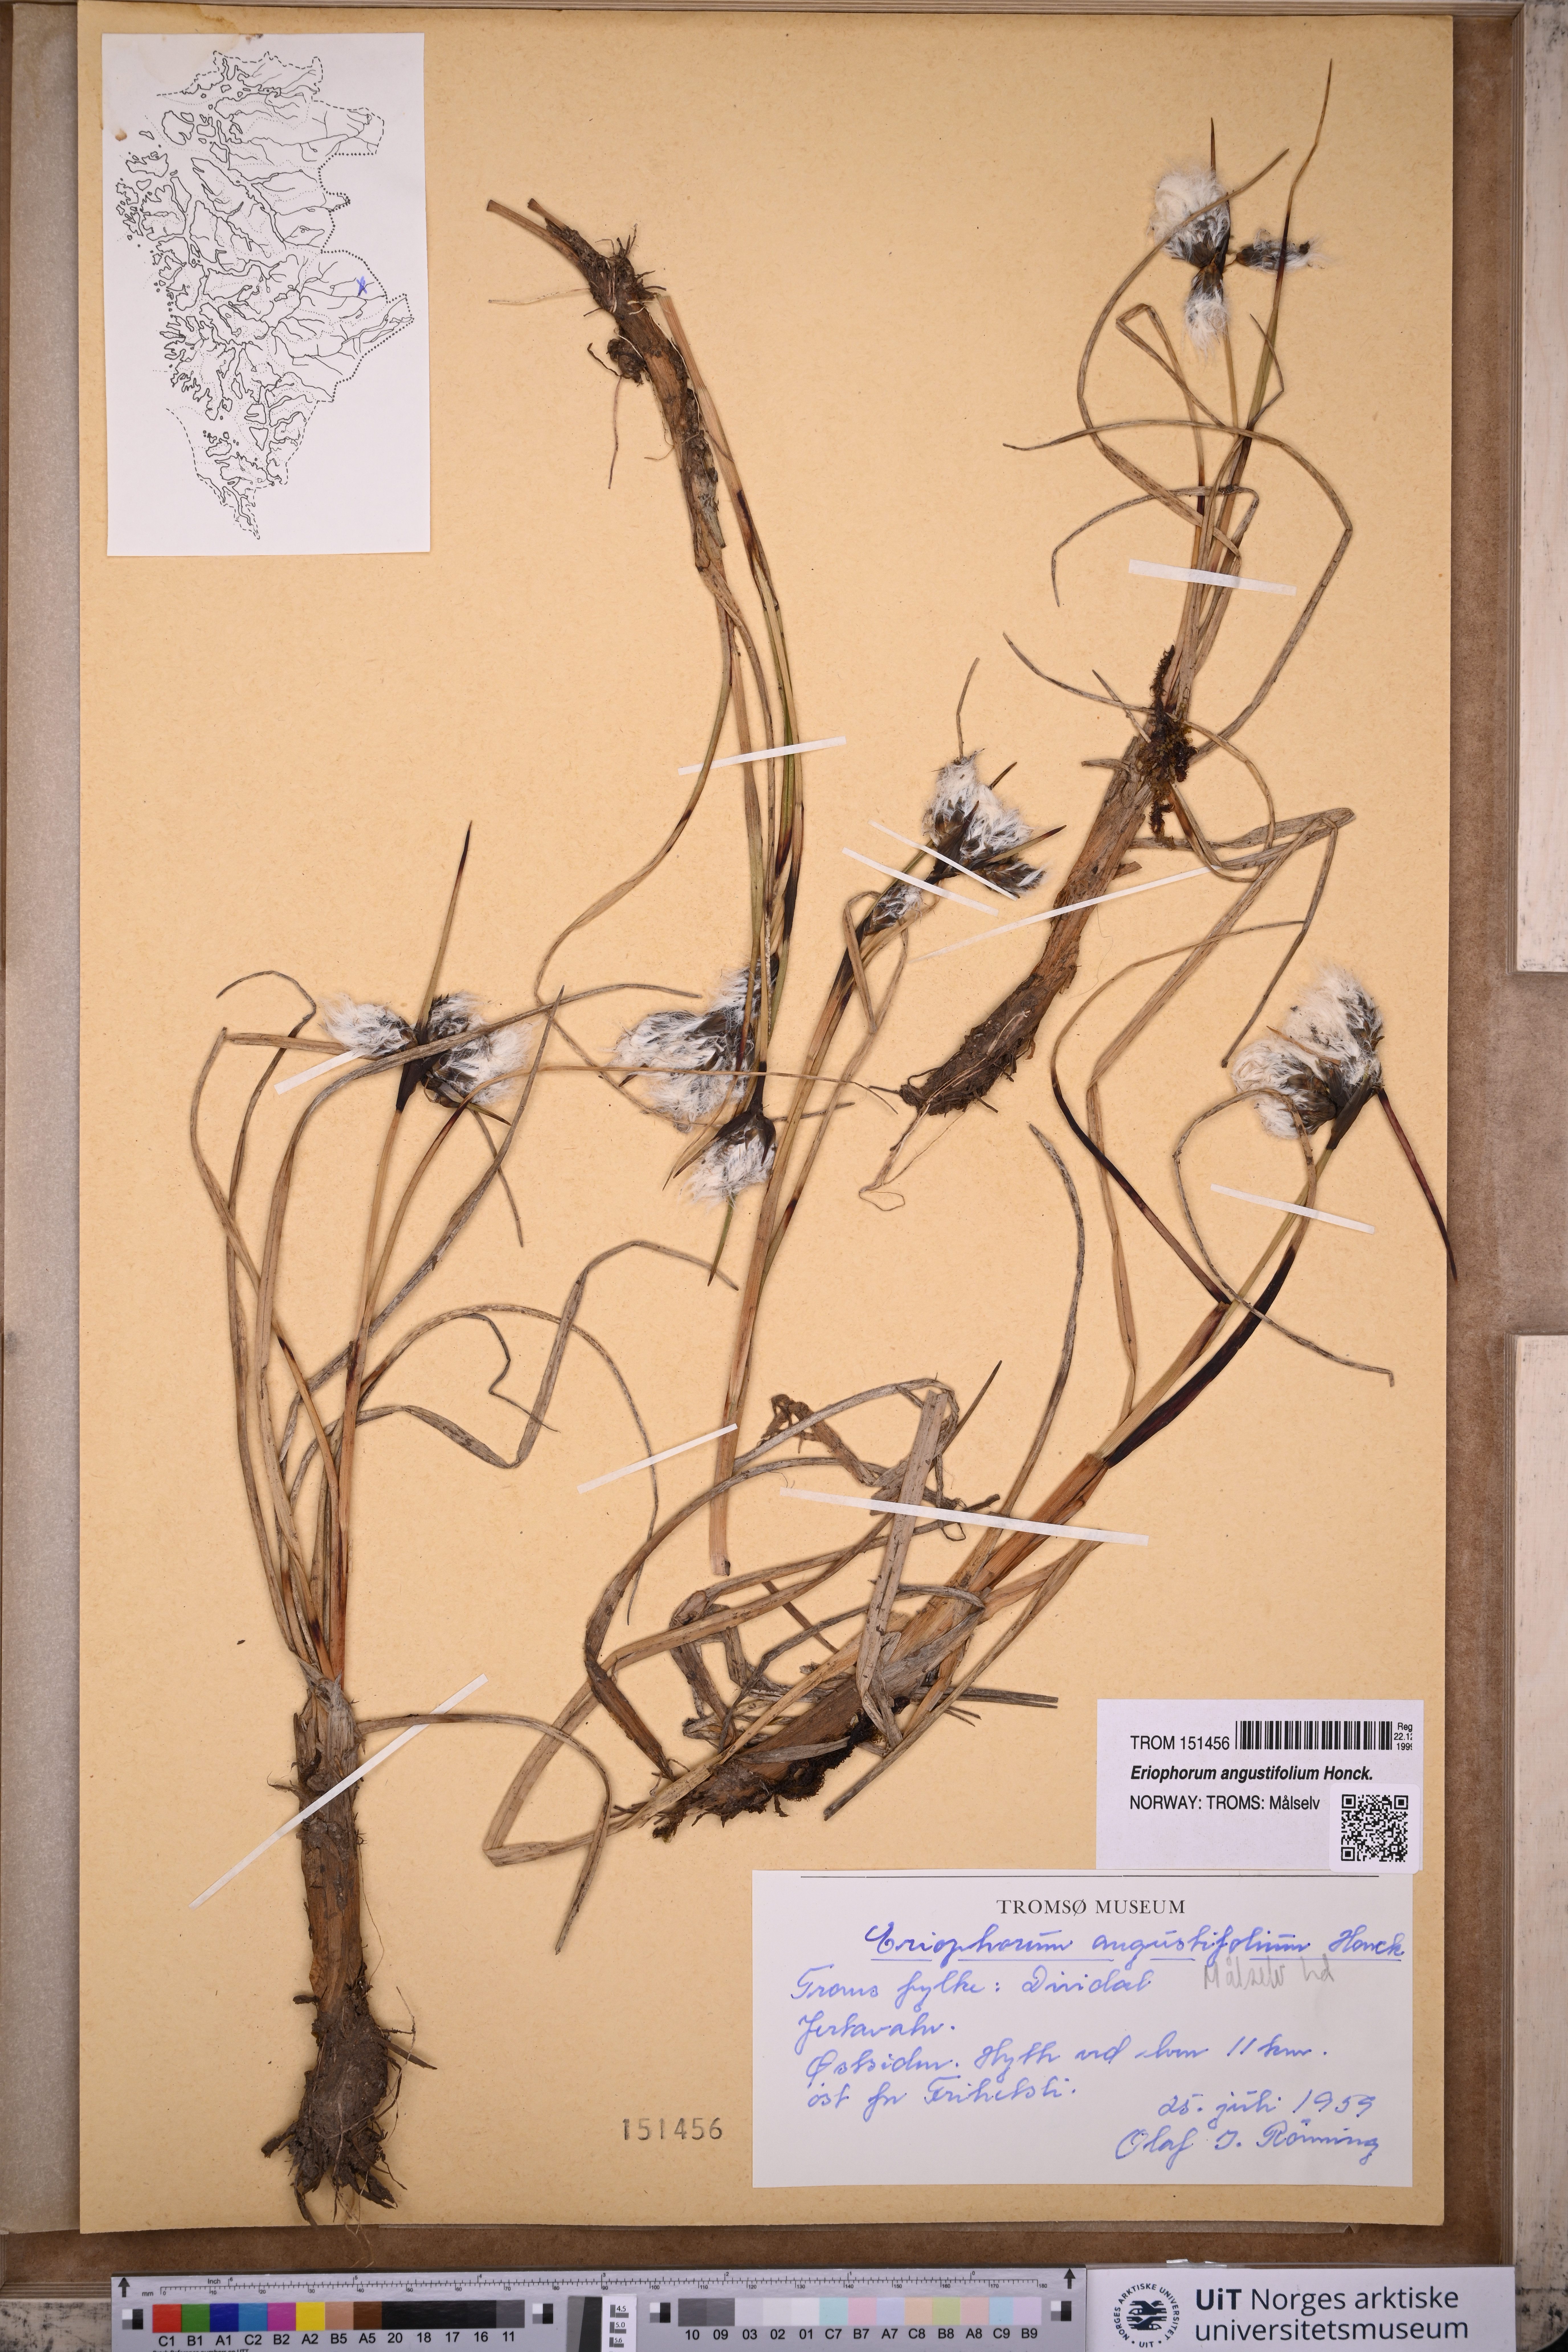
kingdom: Plantae
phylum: Tracheophyta
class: Liliopsida
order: Poales
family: Cyperaceae
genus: Eriophorum
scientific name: Eriophorum angustifolium
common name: Common cottongrass
